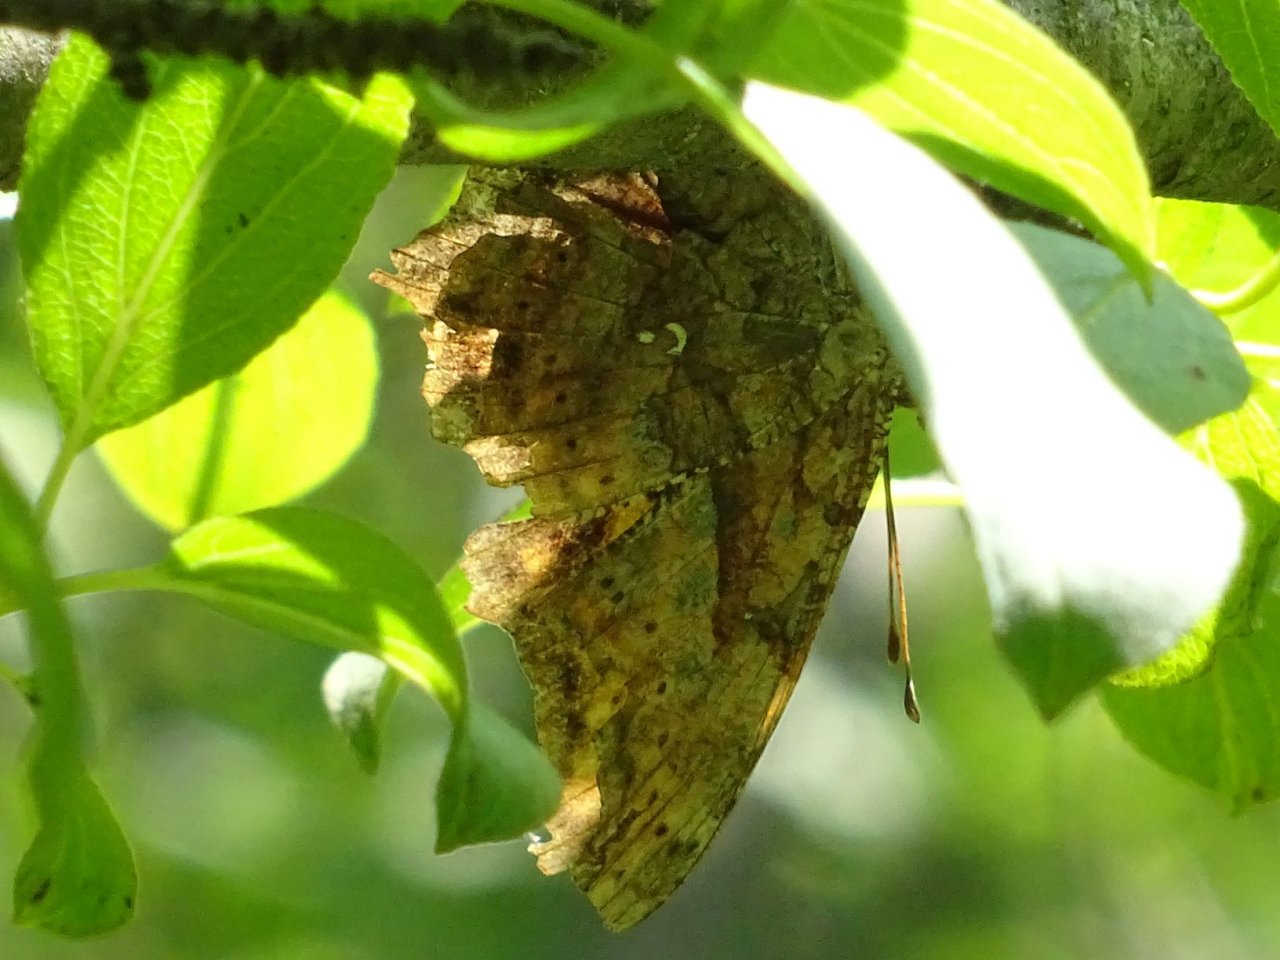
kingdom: Animalia
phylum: Arthropoda
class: Insecta
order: Lepidoptera
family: Nymphalidae
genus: Polygonia
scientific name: Polygonia interrogationis
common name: Question Mark
